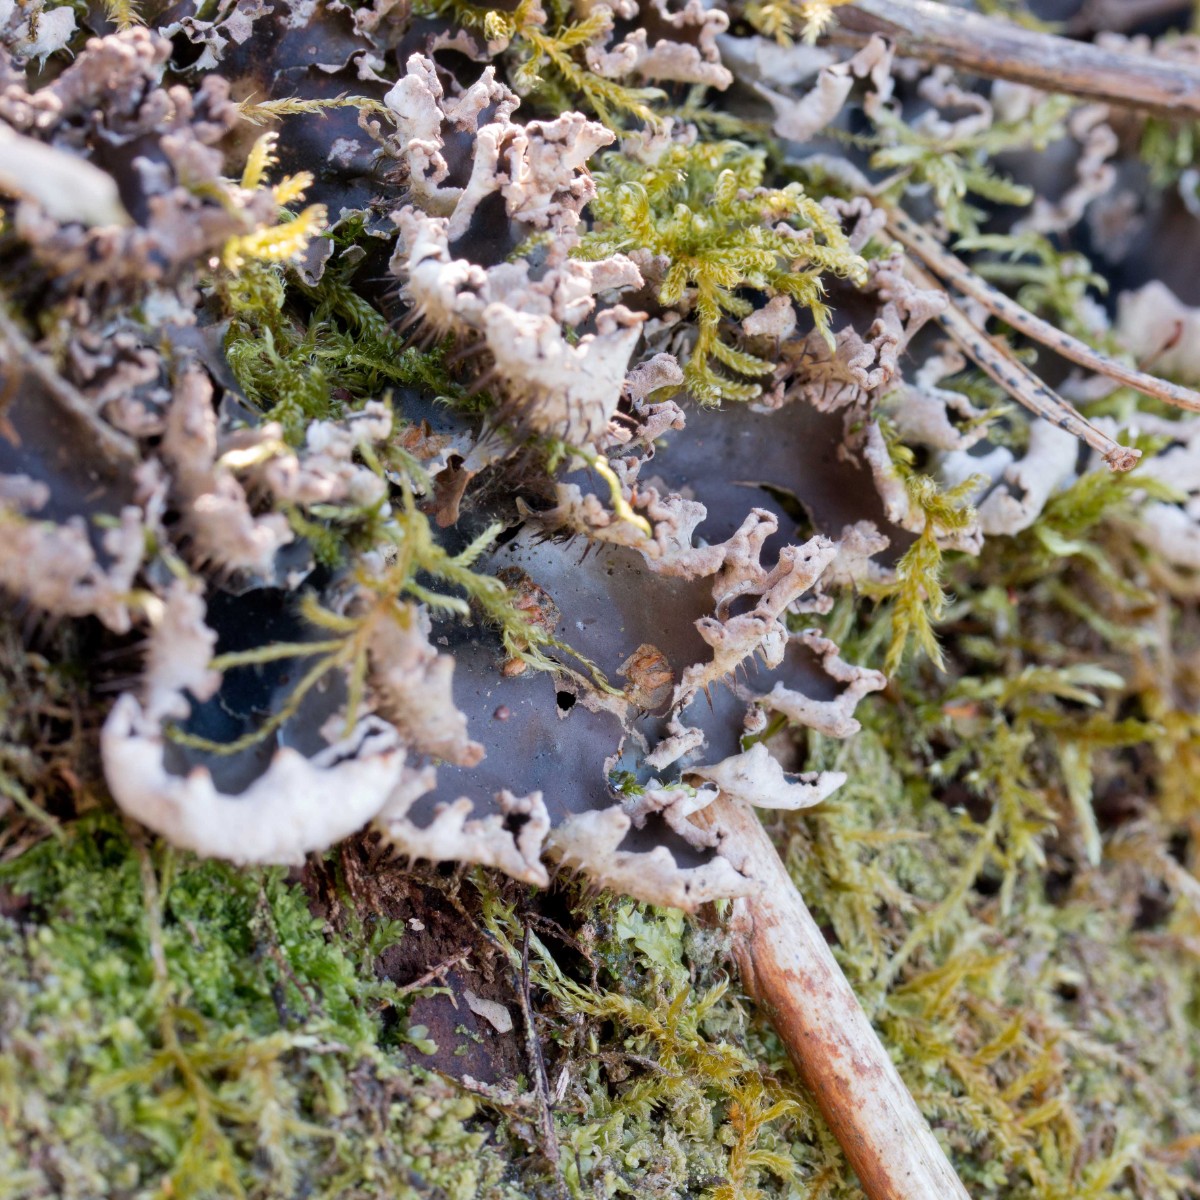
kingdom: Fungi
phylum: Ascomycota
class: Lecanoromycetes
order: Peltigerales
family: Peltigeraceae
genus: Peltigera
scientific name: Peltigera neckeri
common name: glinsende skjoldlav
